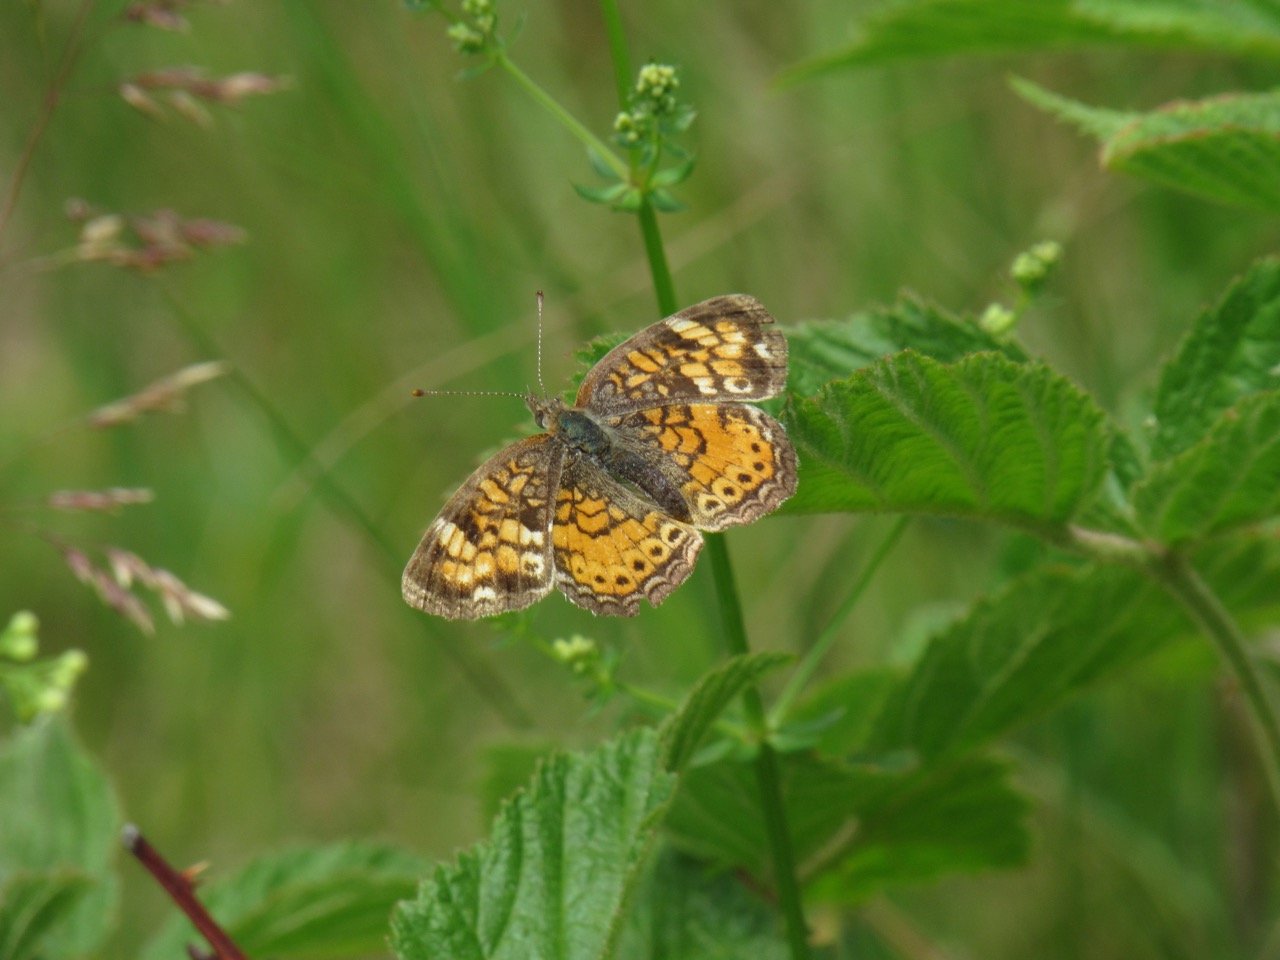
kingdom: Animalia
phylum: Arthropoda
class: Insecta
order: Lepidoptera
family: Nymphalidae
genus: Phyciodes
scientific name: Phyciodes tharos
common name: Pearl Crescent
